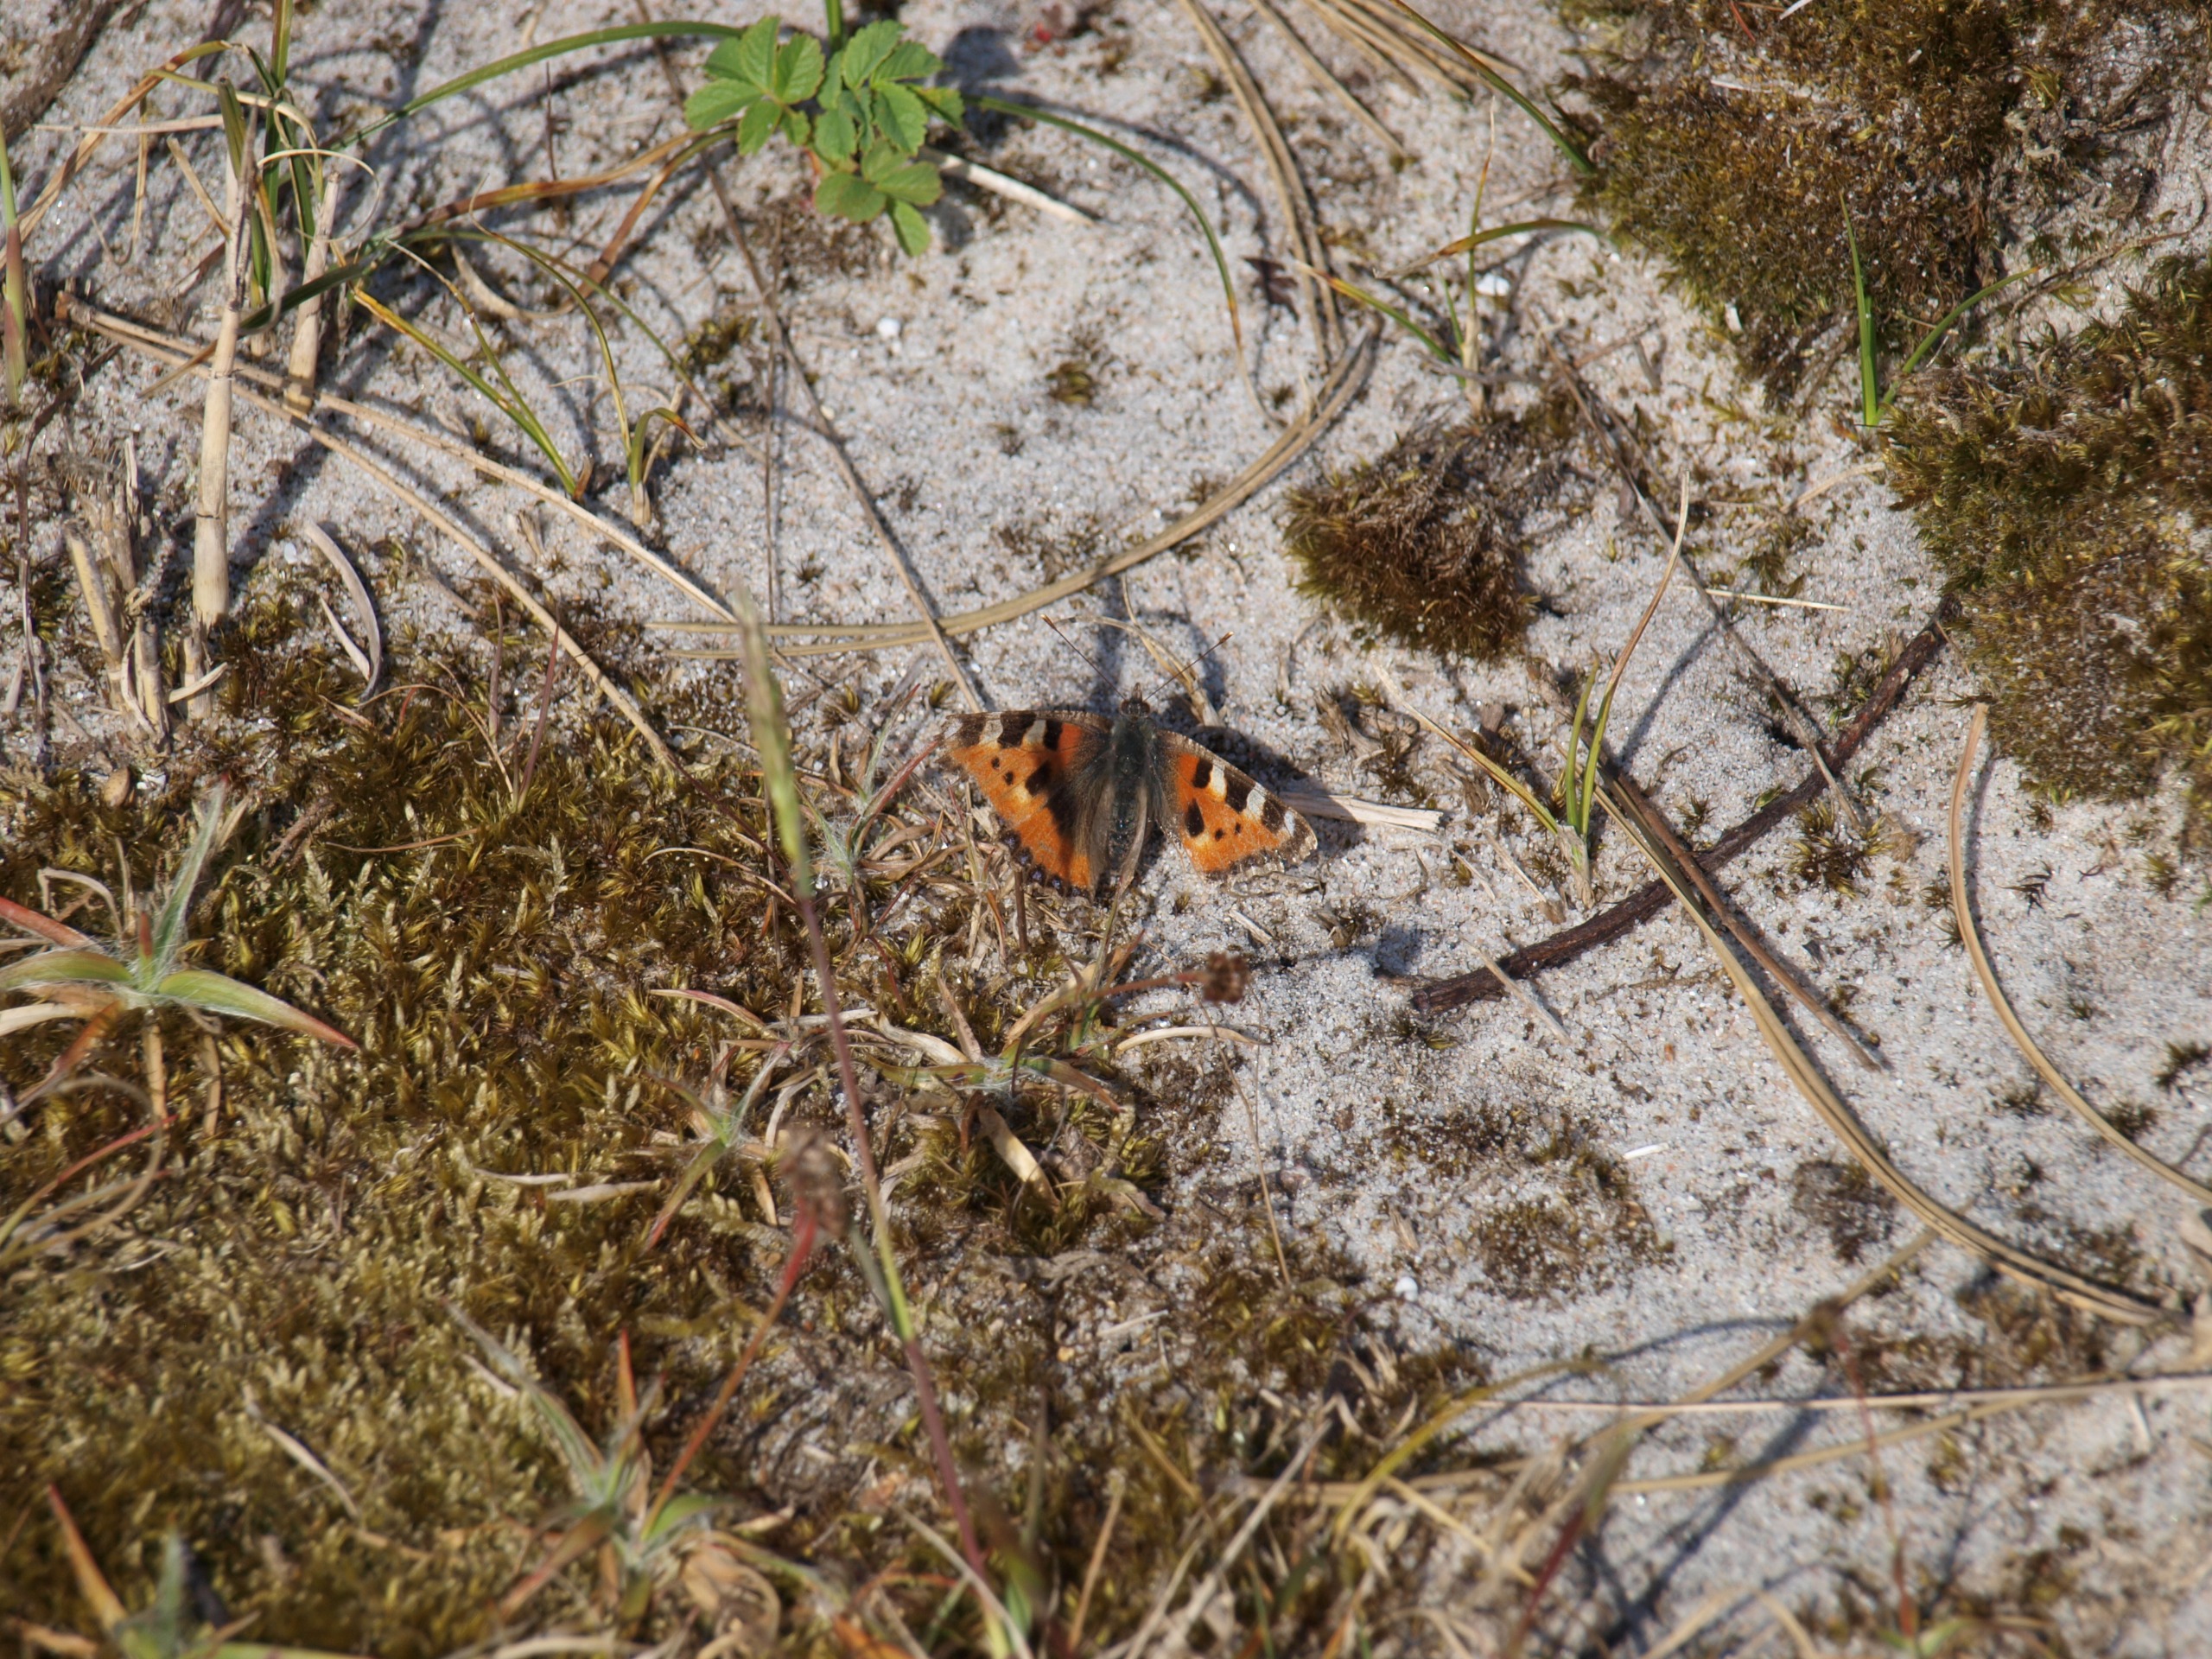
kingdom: Animalia
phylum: Arthropoda
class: Insecta
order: Lepidoptera
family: Nymphalidae
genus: Aglais
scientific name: Aglais urticae
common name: Nældens takvinge
